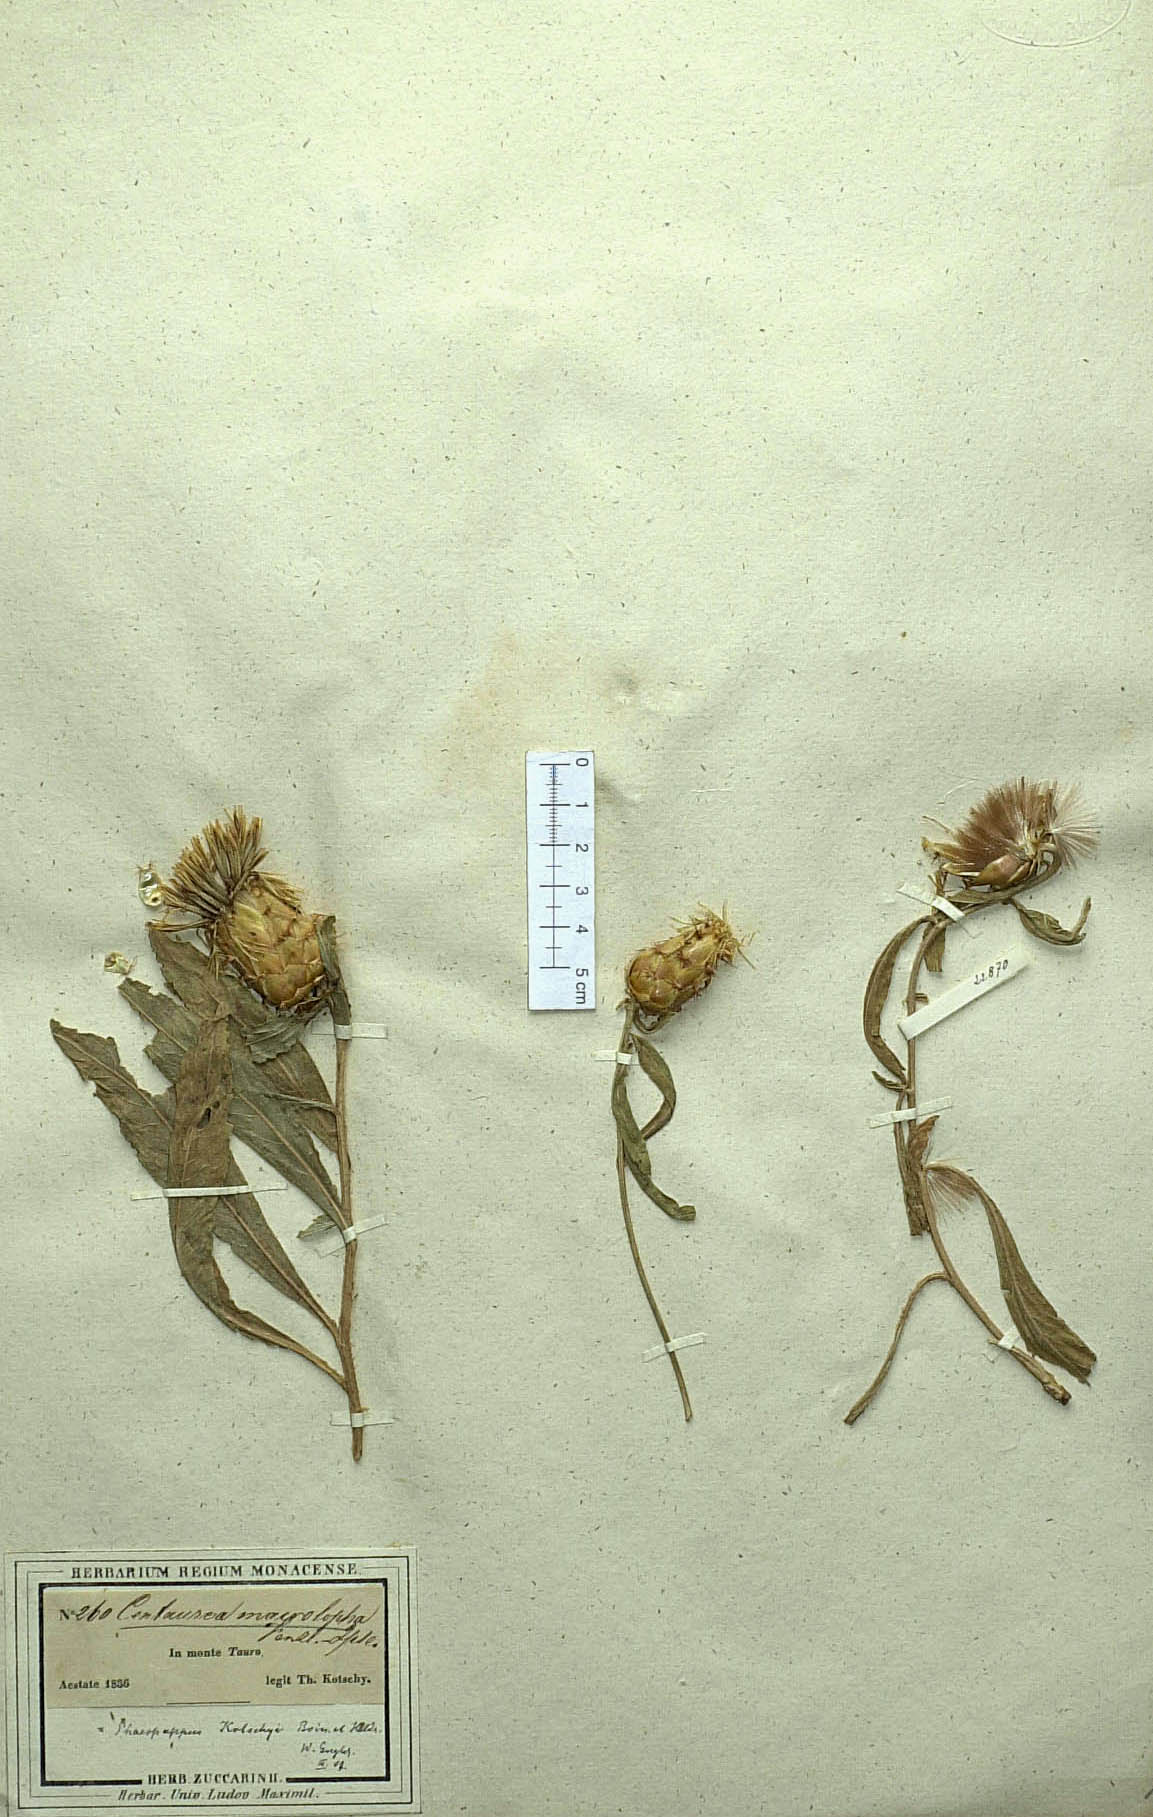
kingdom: Plantae
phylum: Tracheophyta
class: Magnoliopsida
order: Asterales
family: Asteraceae
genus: Centaurea
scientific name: Centaurea kotschyi
